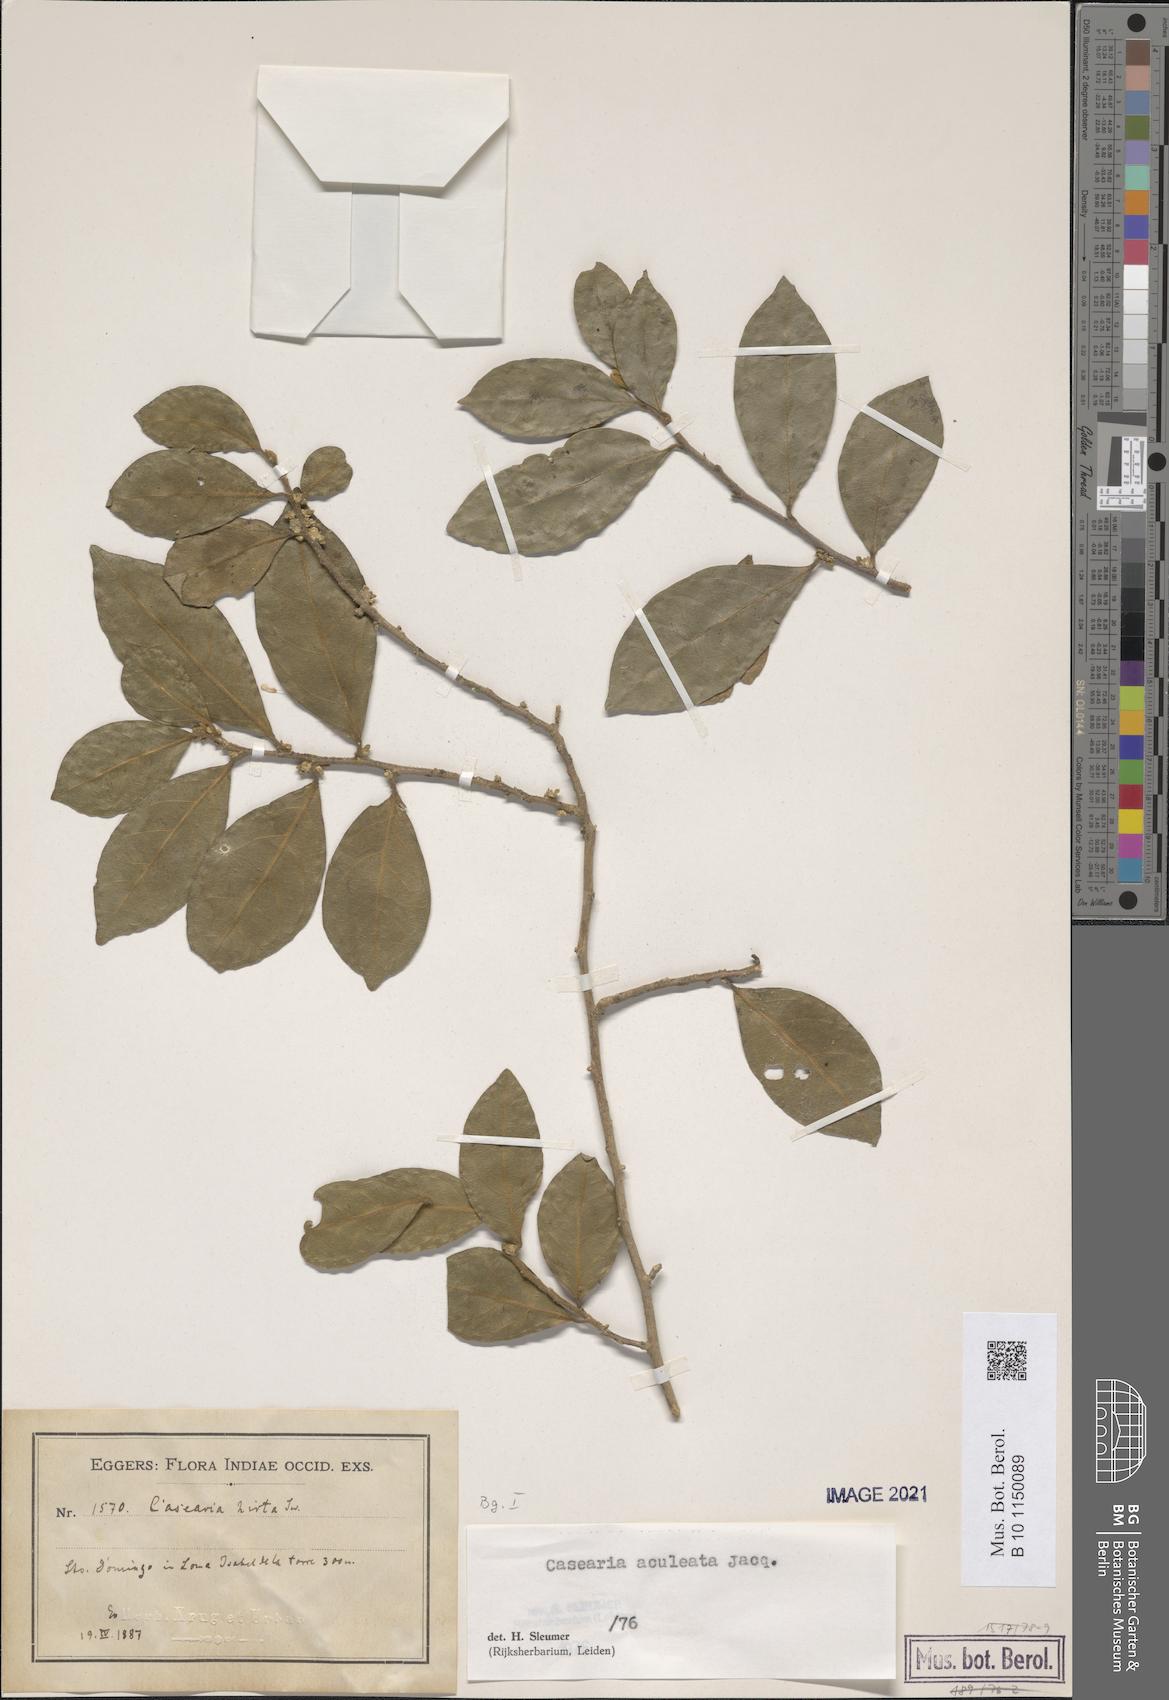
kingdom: Plantae
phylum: Tracheophyta
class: Magnoliopsida
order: Malpighiales
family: Salicaceae
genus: Casearia
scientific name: Casearia aculeata
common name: Cockspur
